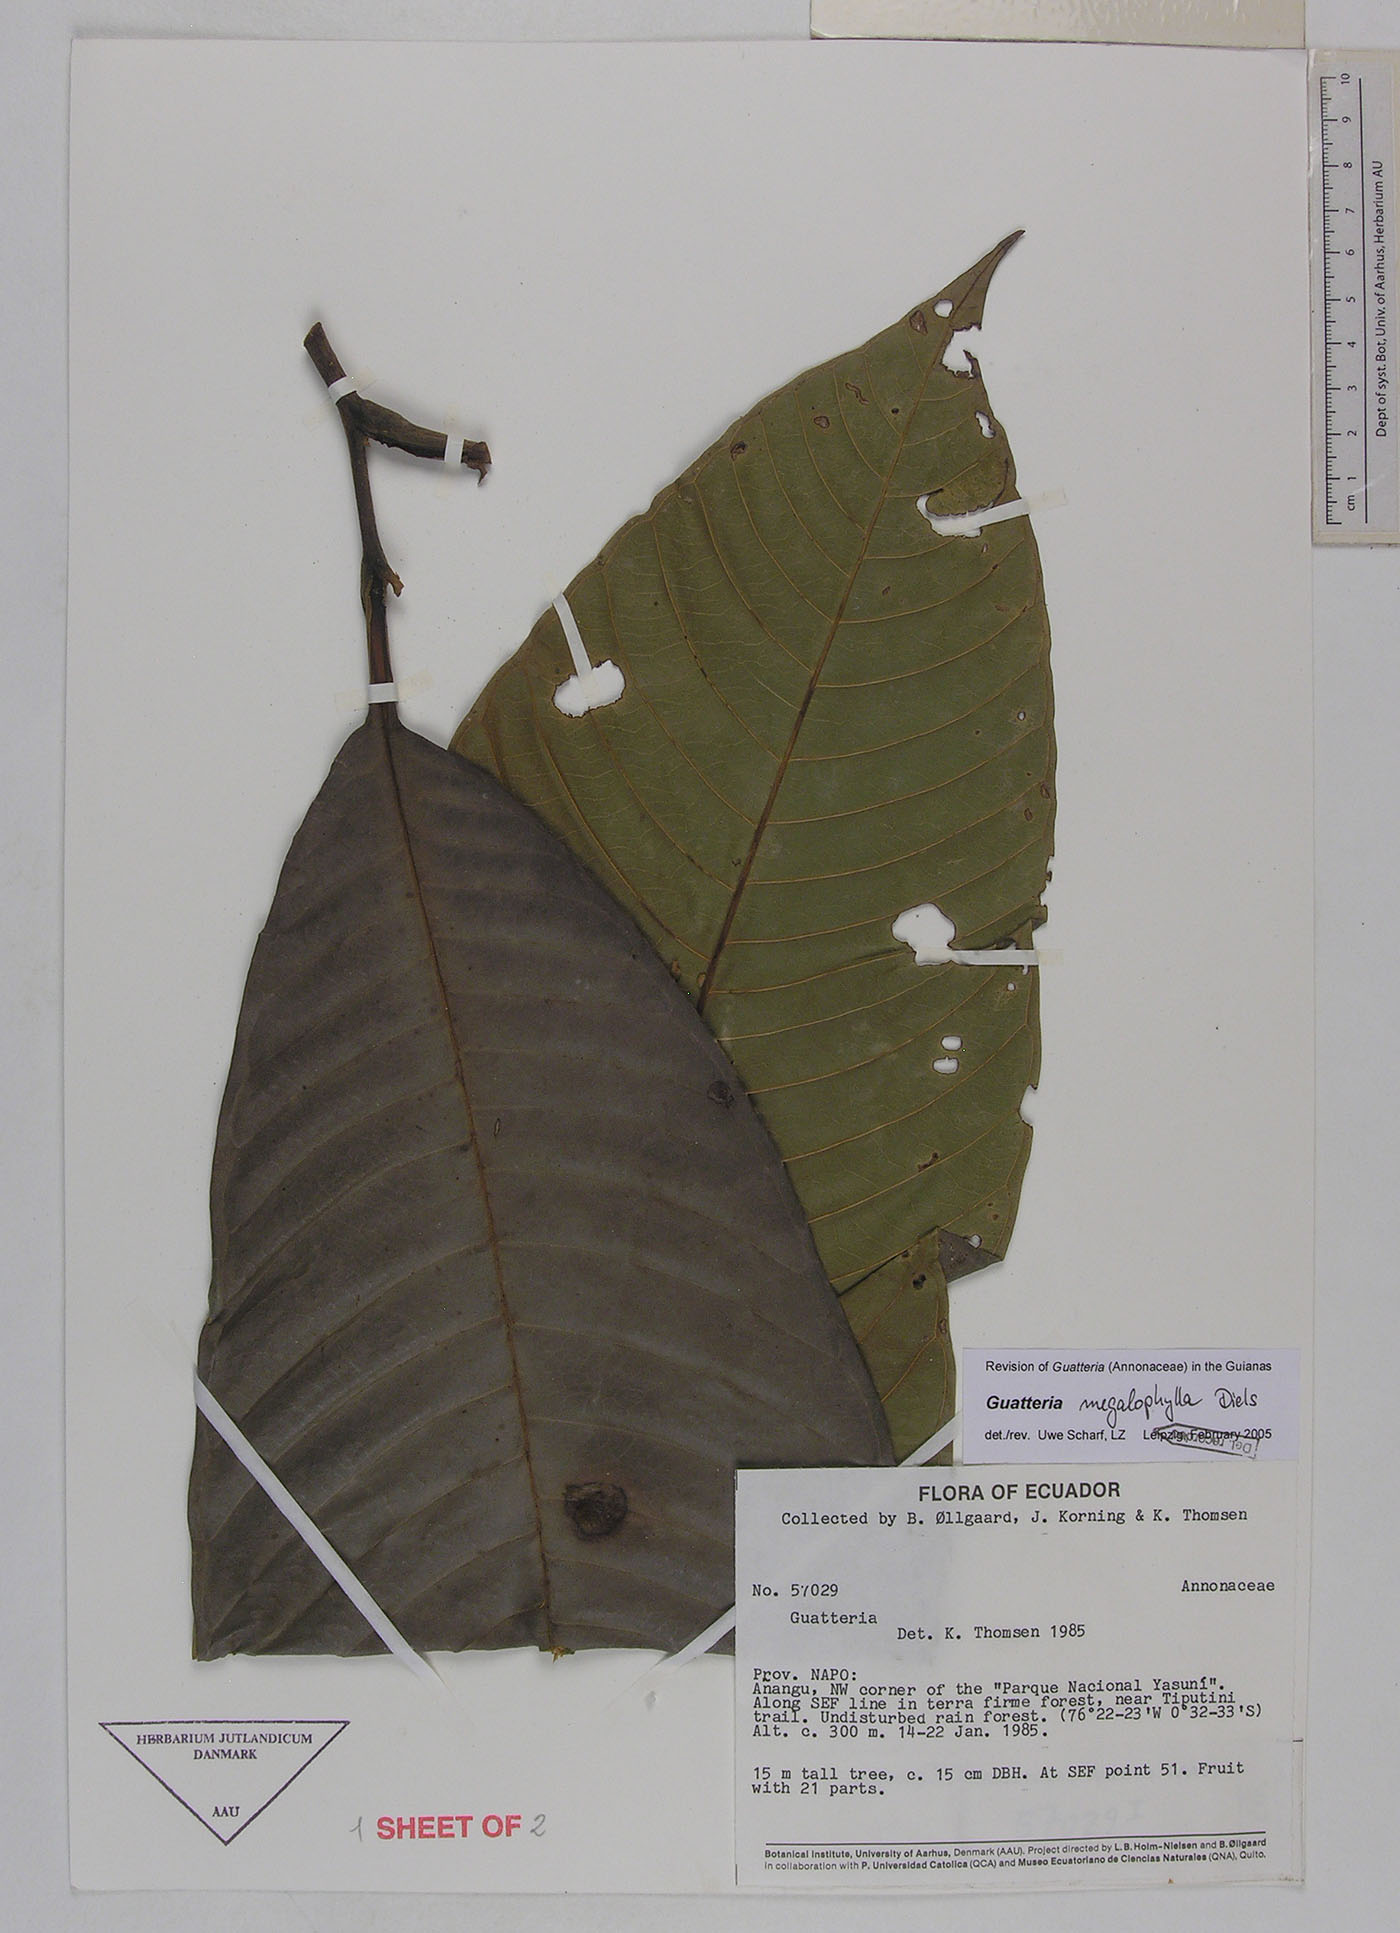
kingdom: Plantae
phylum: Tracheophyta
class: Magnoliopsida
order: Magnoliales
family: Annonaceae
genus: Guatteria
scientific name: Guatteria megalophylla
